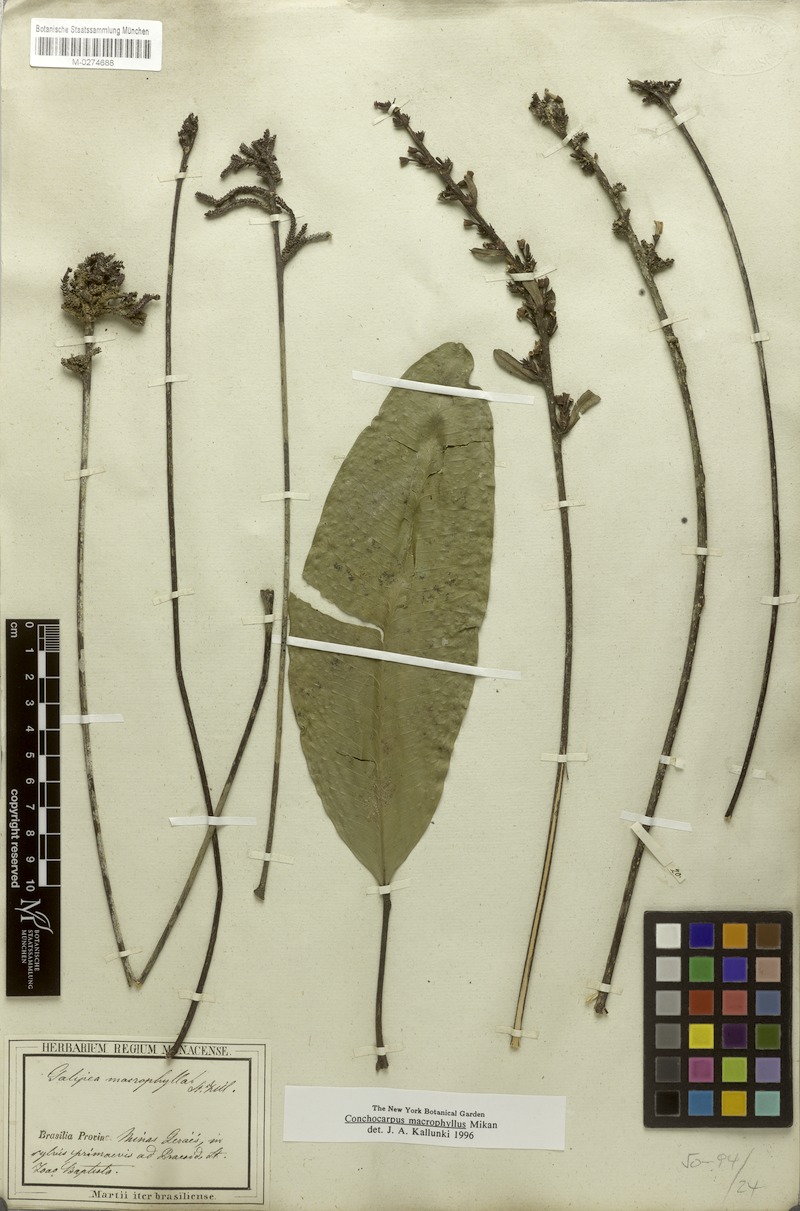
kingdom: Plantae
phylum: Tracheophyta
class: Magnoliopsida
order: Sapindales
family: Rutaceae
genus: Conchocarpus
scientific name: Conchocarpus macrophyllus
